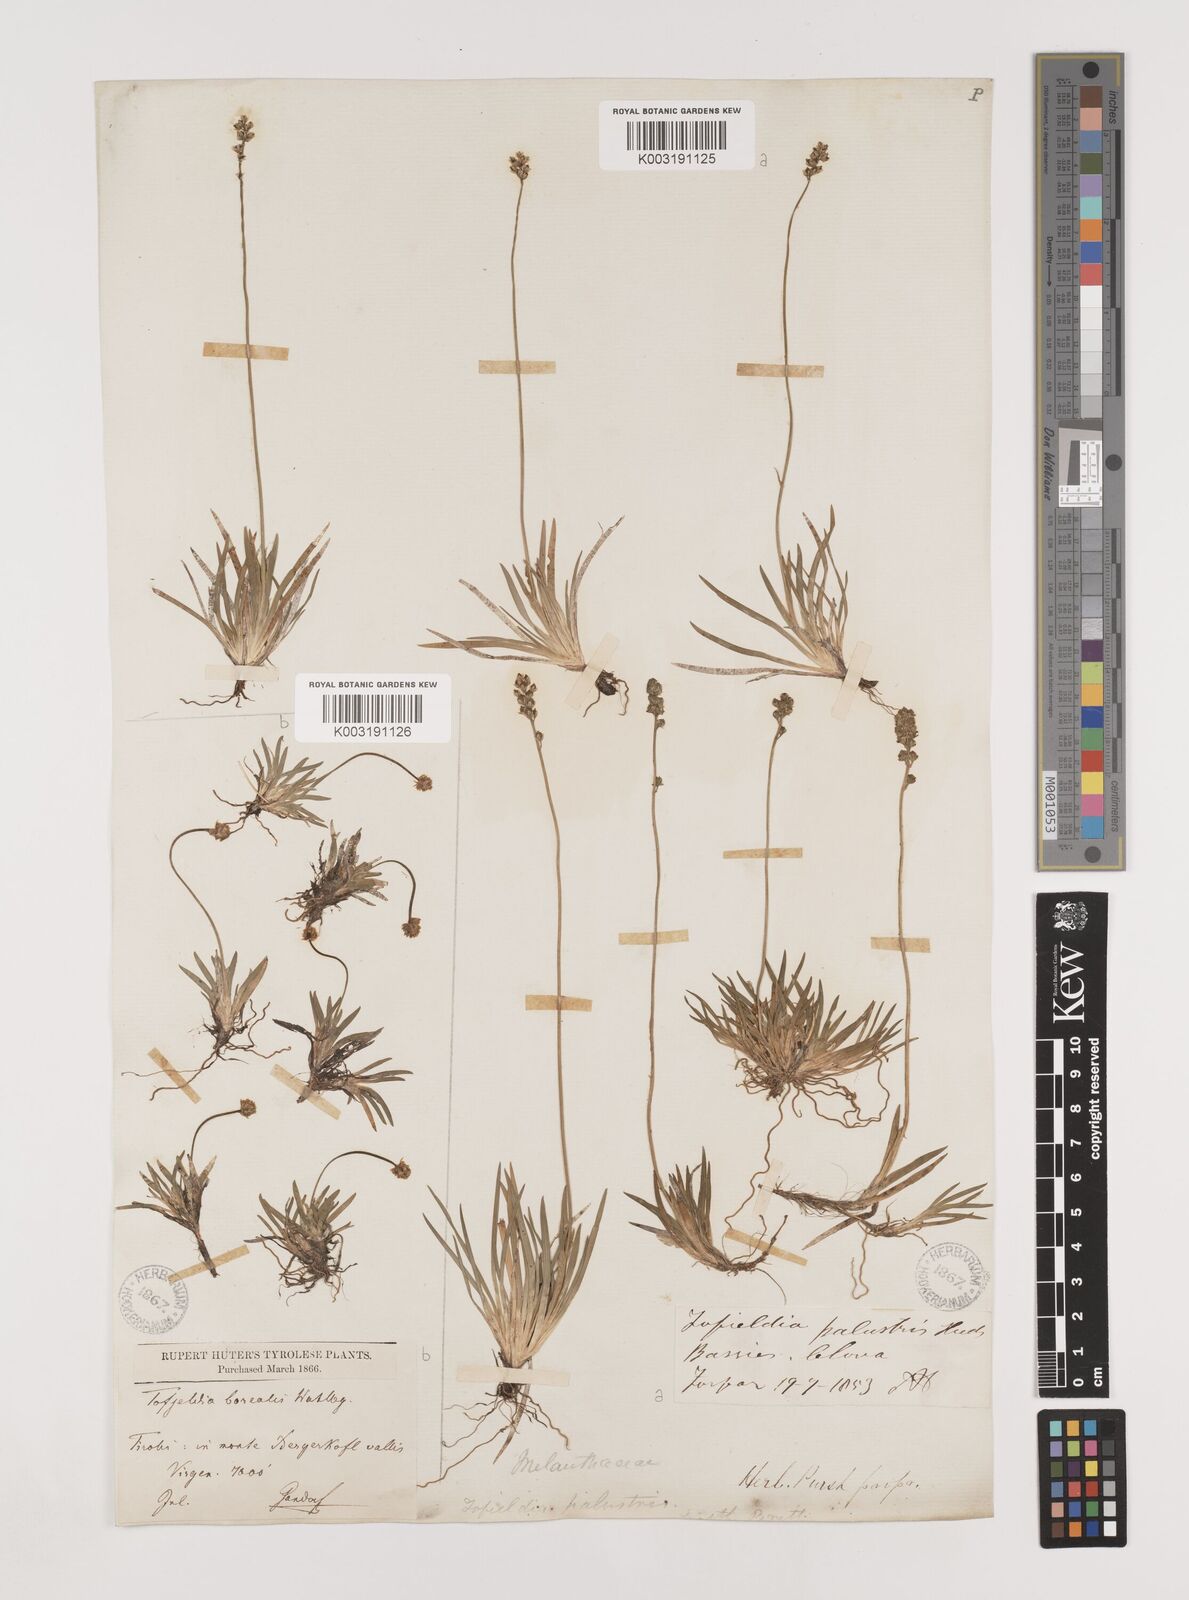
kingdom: Plantae
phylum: Tracheophyta
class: Liliopsida
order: Alismatales
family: Tofieldiaceae
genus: Tofieldia
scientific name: Tofieldia pusilla
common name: Scottish false asphodel
